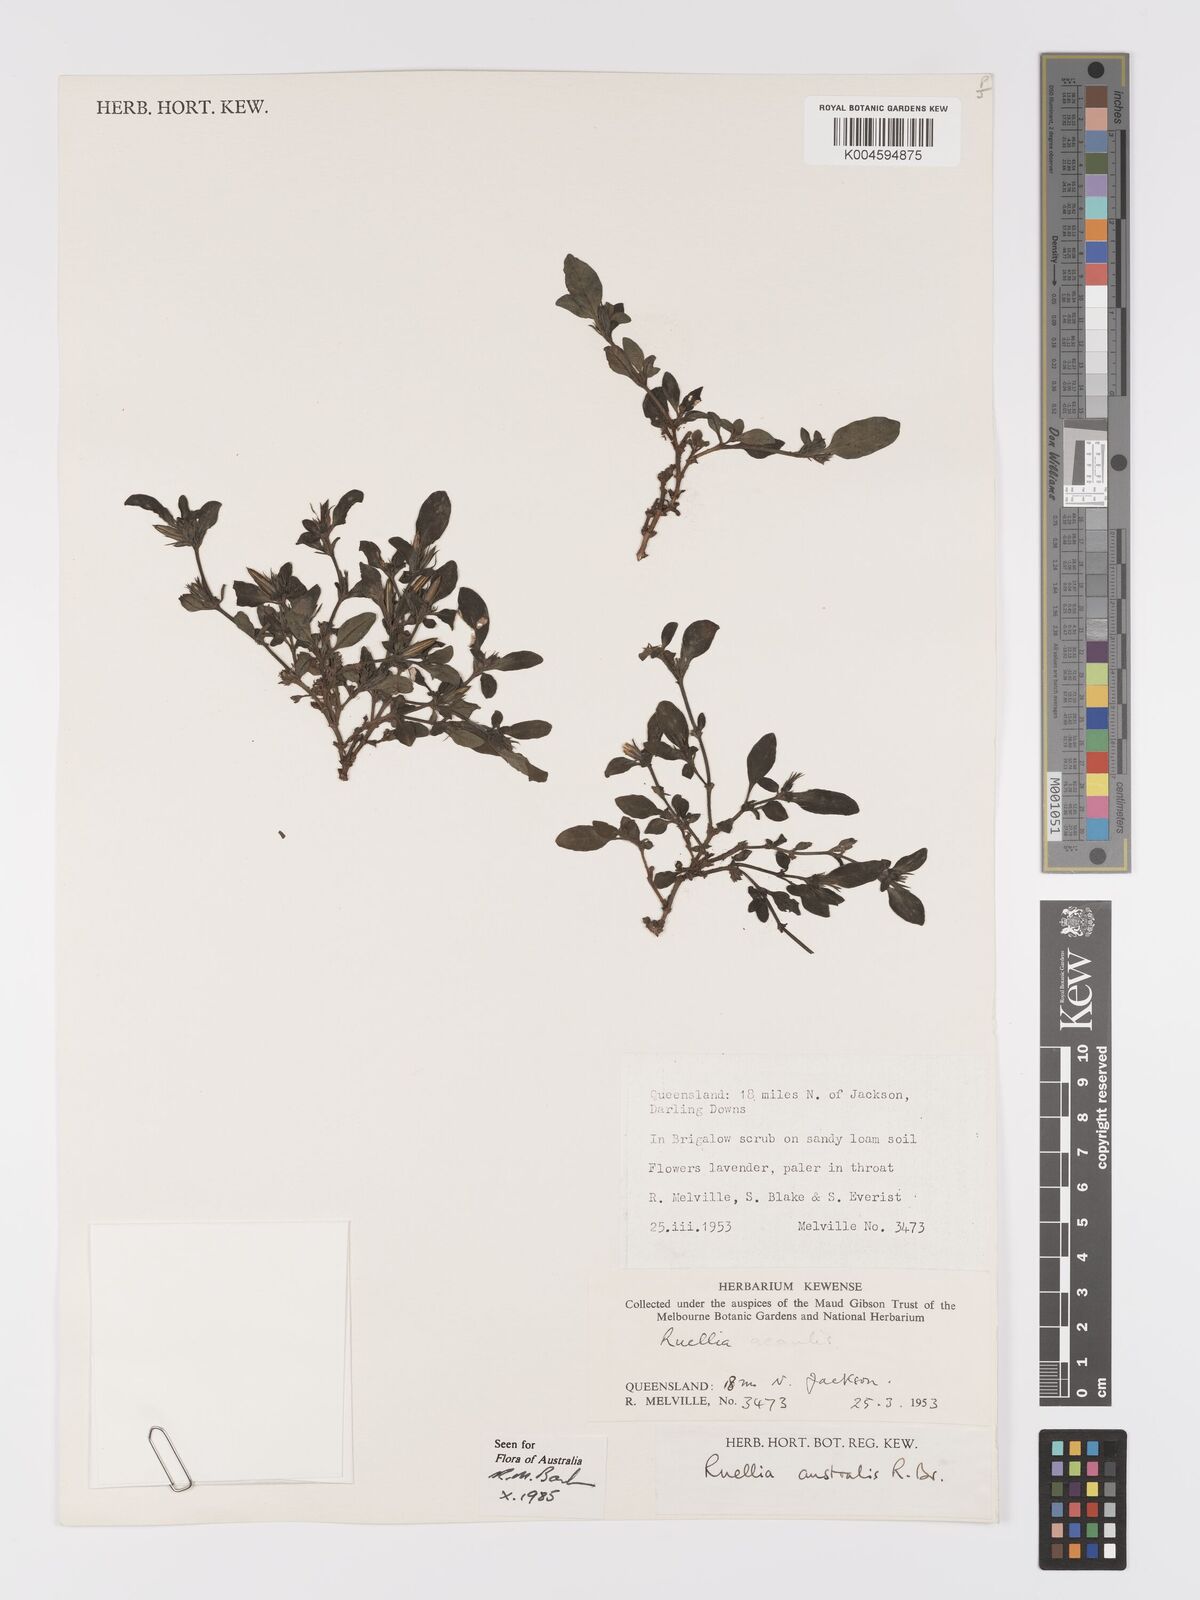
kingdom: Plantae
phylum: Tracheophyta
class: Magnoliopsida
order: Lamiales
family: Acanthaceae
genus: Brunoniella
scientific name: Brunoniella australis
